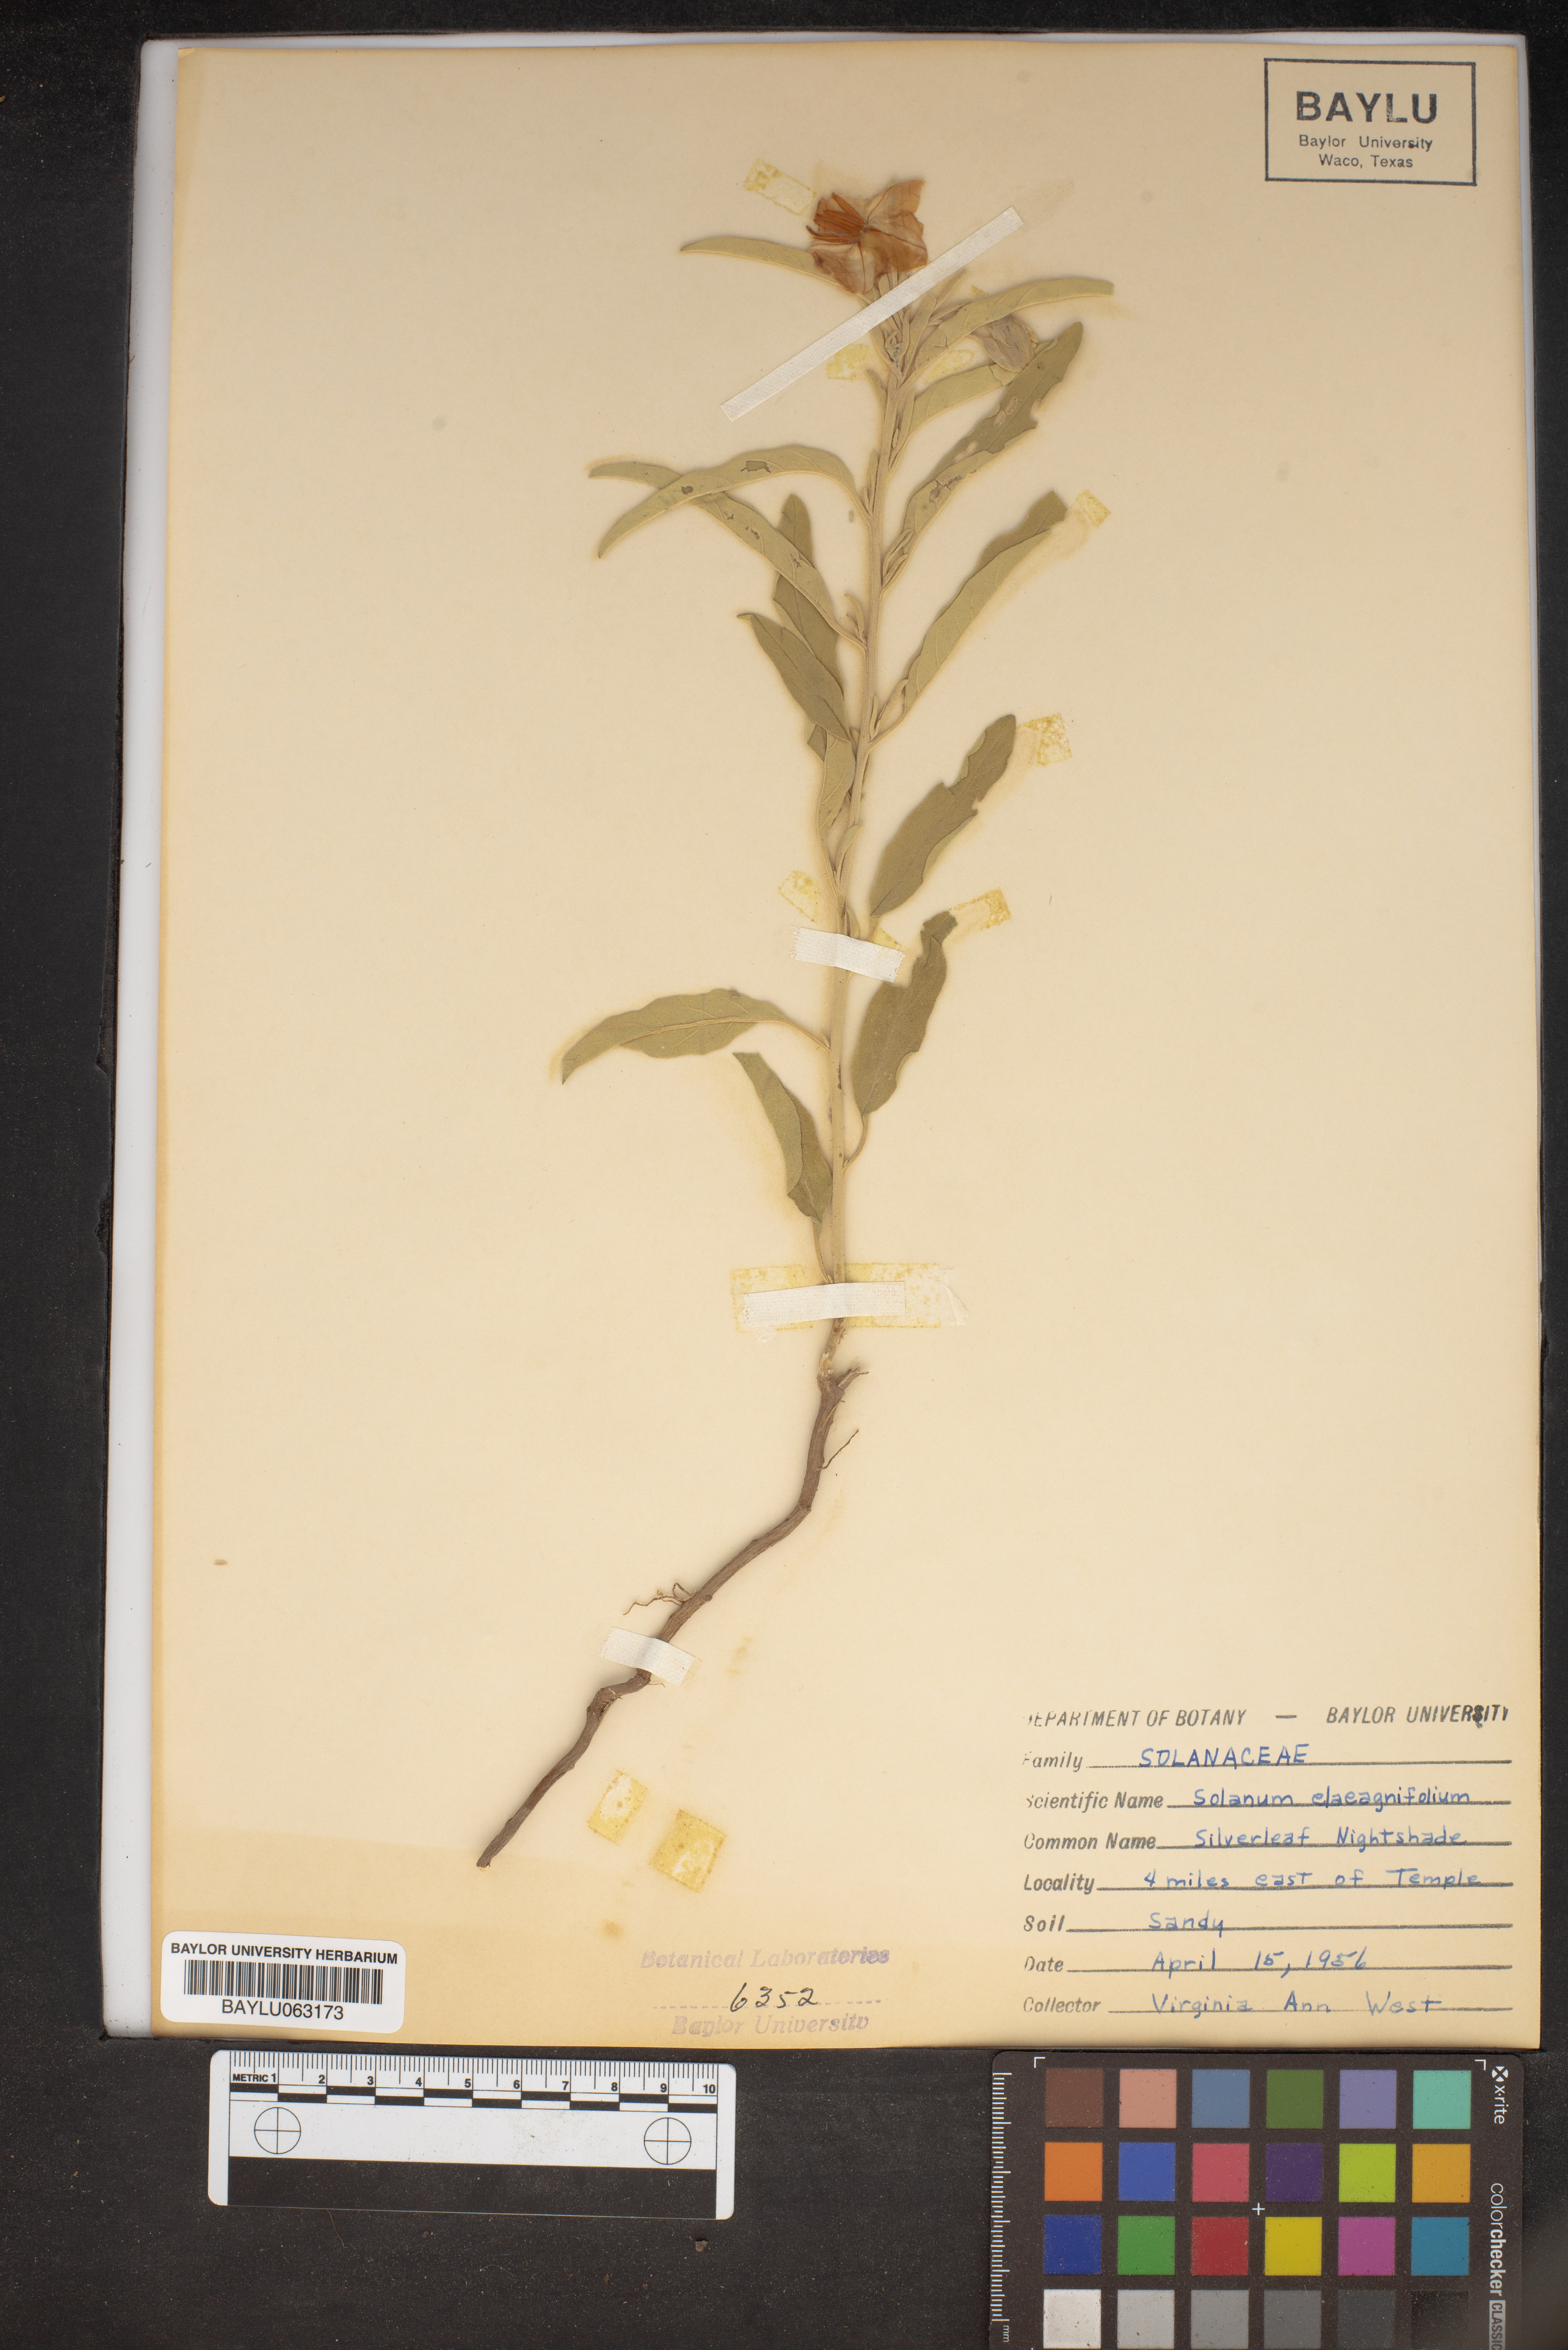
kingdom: Plantae
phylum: Tracheophyta
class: Magnoliopsida
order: Solanales
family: Solanaceae
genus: Solanum
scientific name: Solanum elaeagnifolium
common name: Silverleaf nightshade
